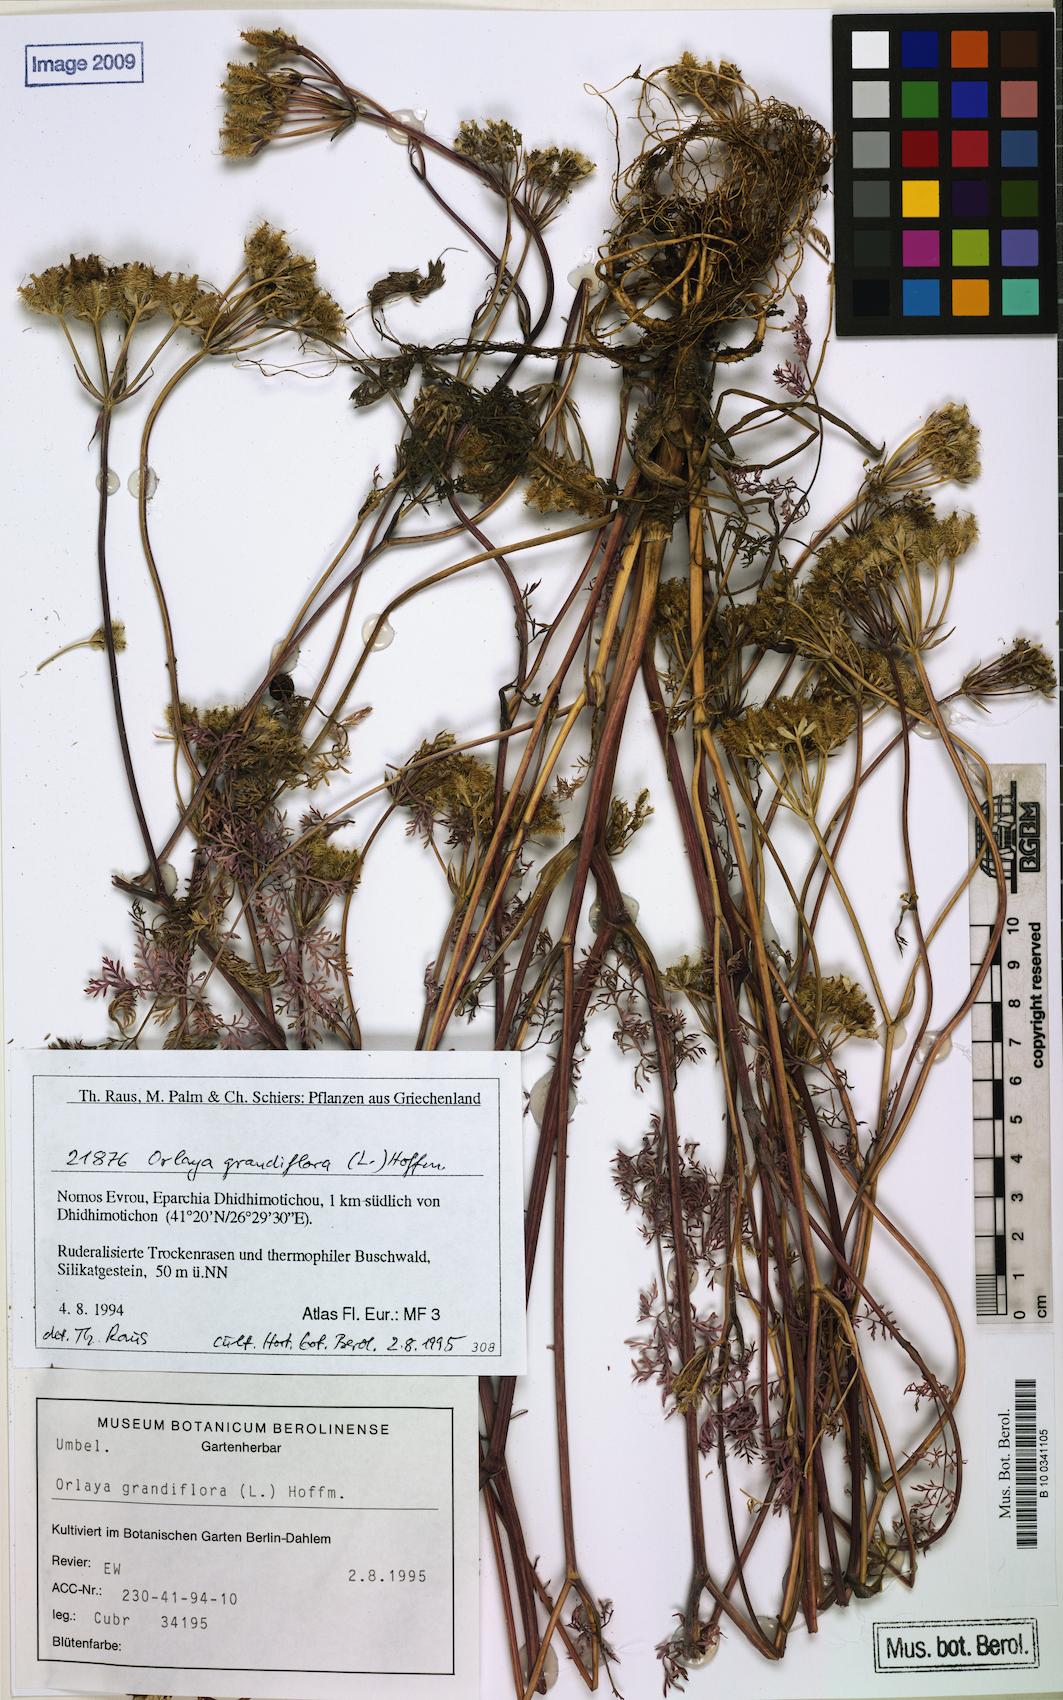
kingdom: Plantae
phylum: Tracheophyta
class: Magnoliopsida
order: Apiales
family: Apiaceae
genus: Orlaya
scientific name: Orlaya grandiflora
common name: White lace flower
